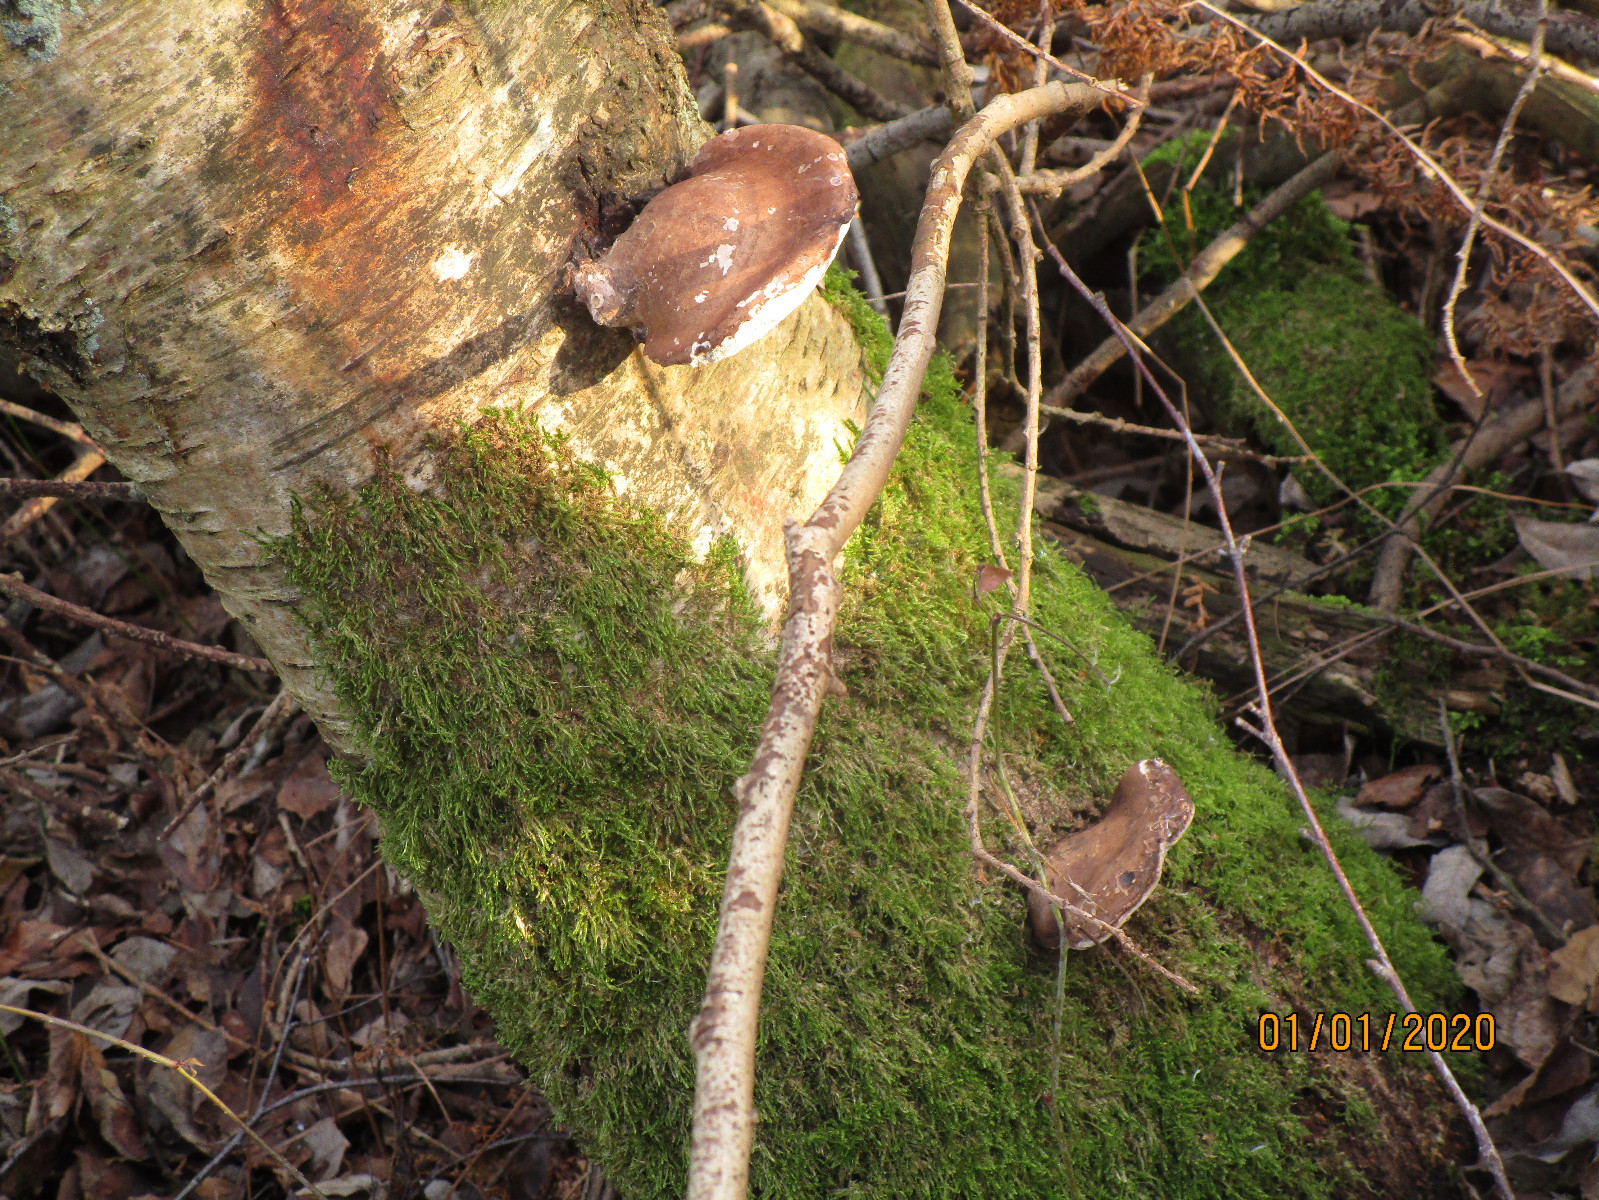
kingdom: Fungi
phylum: Basidiomycota
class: Agaricomycetes
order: Polyporales
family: Fomitopsidaceae
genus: Fomitopsis
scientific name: Fomitopsis betulina
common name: birkeporesvamp
